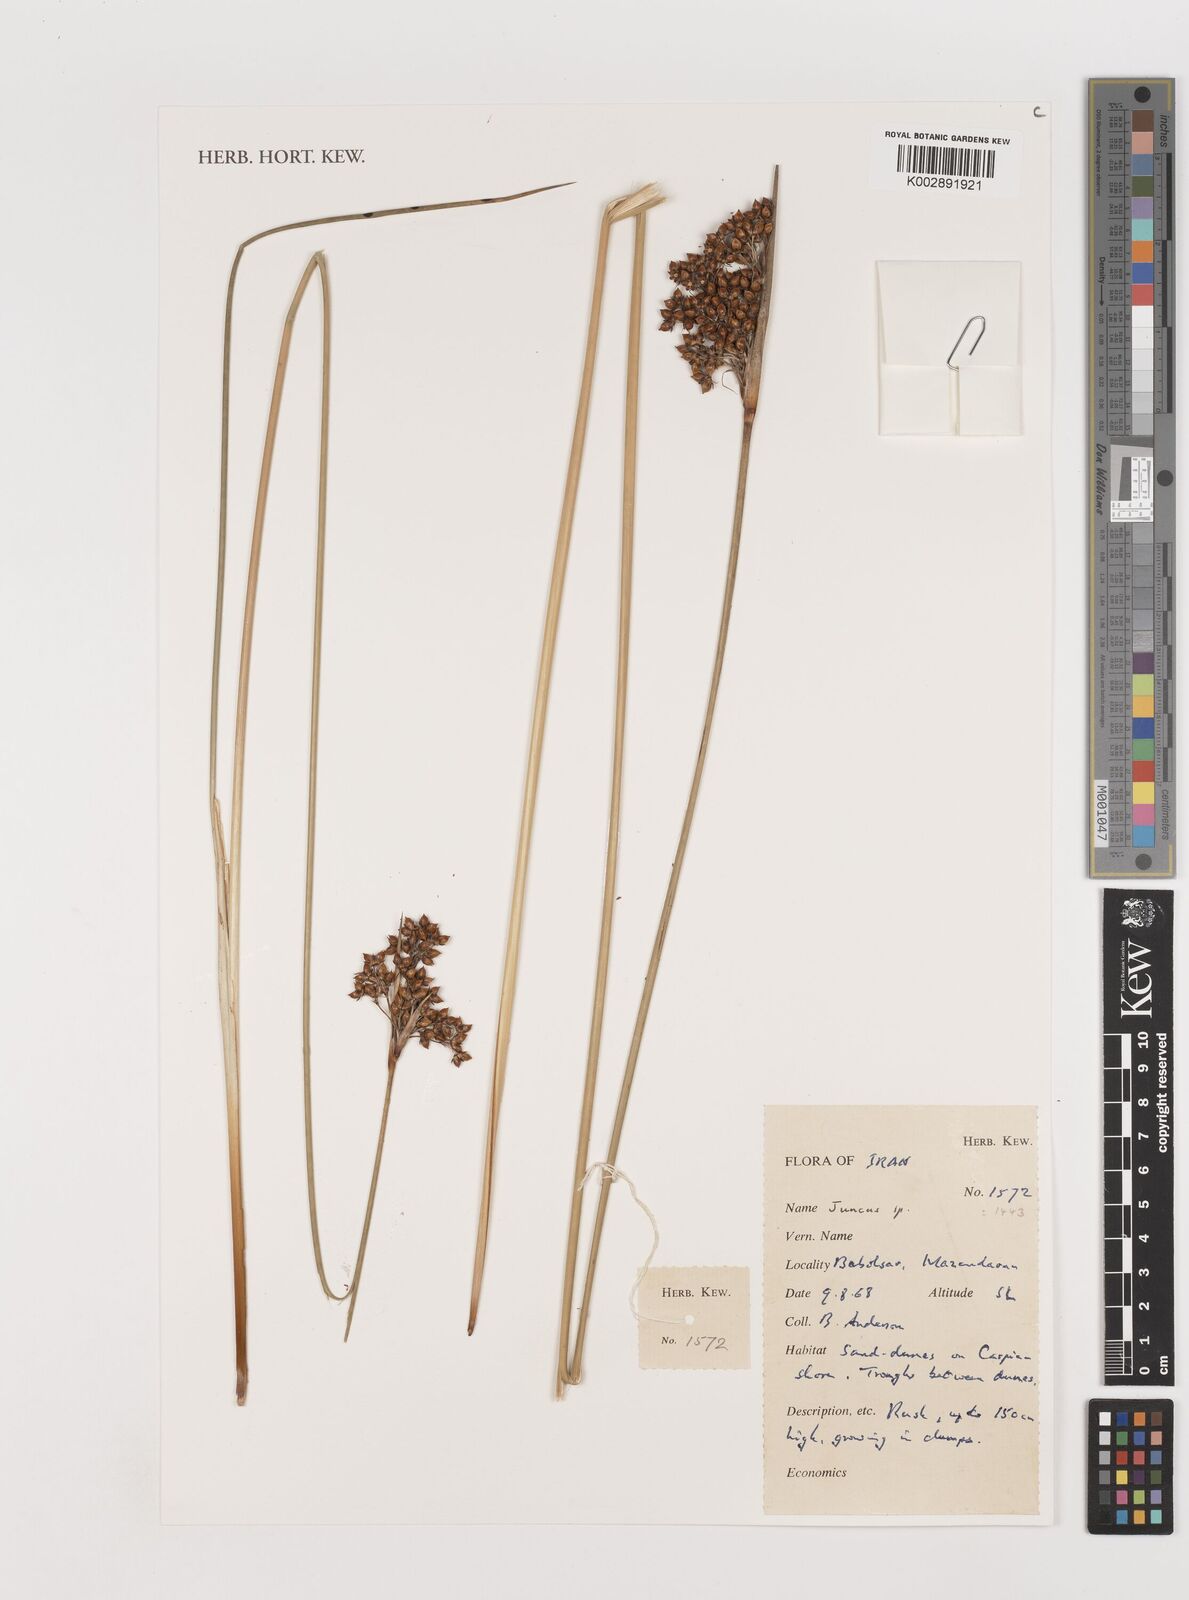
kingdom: Plantae
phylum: Tracheophyta
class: Liliopsida
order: Poales
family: Juncaceae
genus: Juncus
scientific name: Juncus
